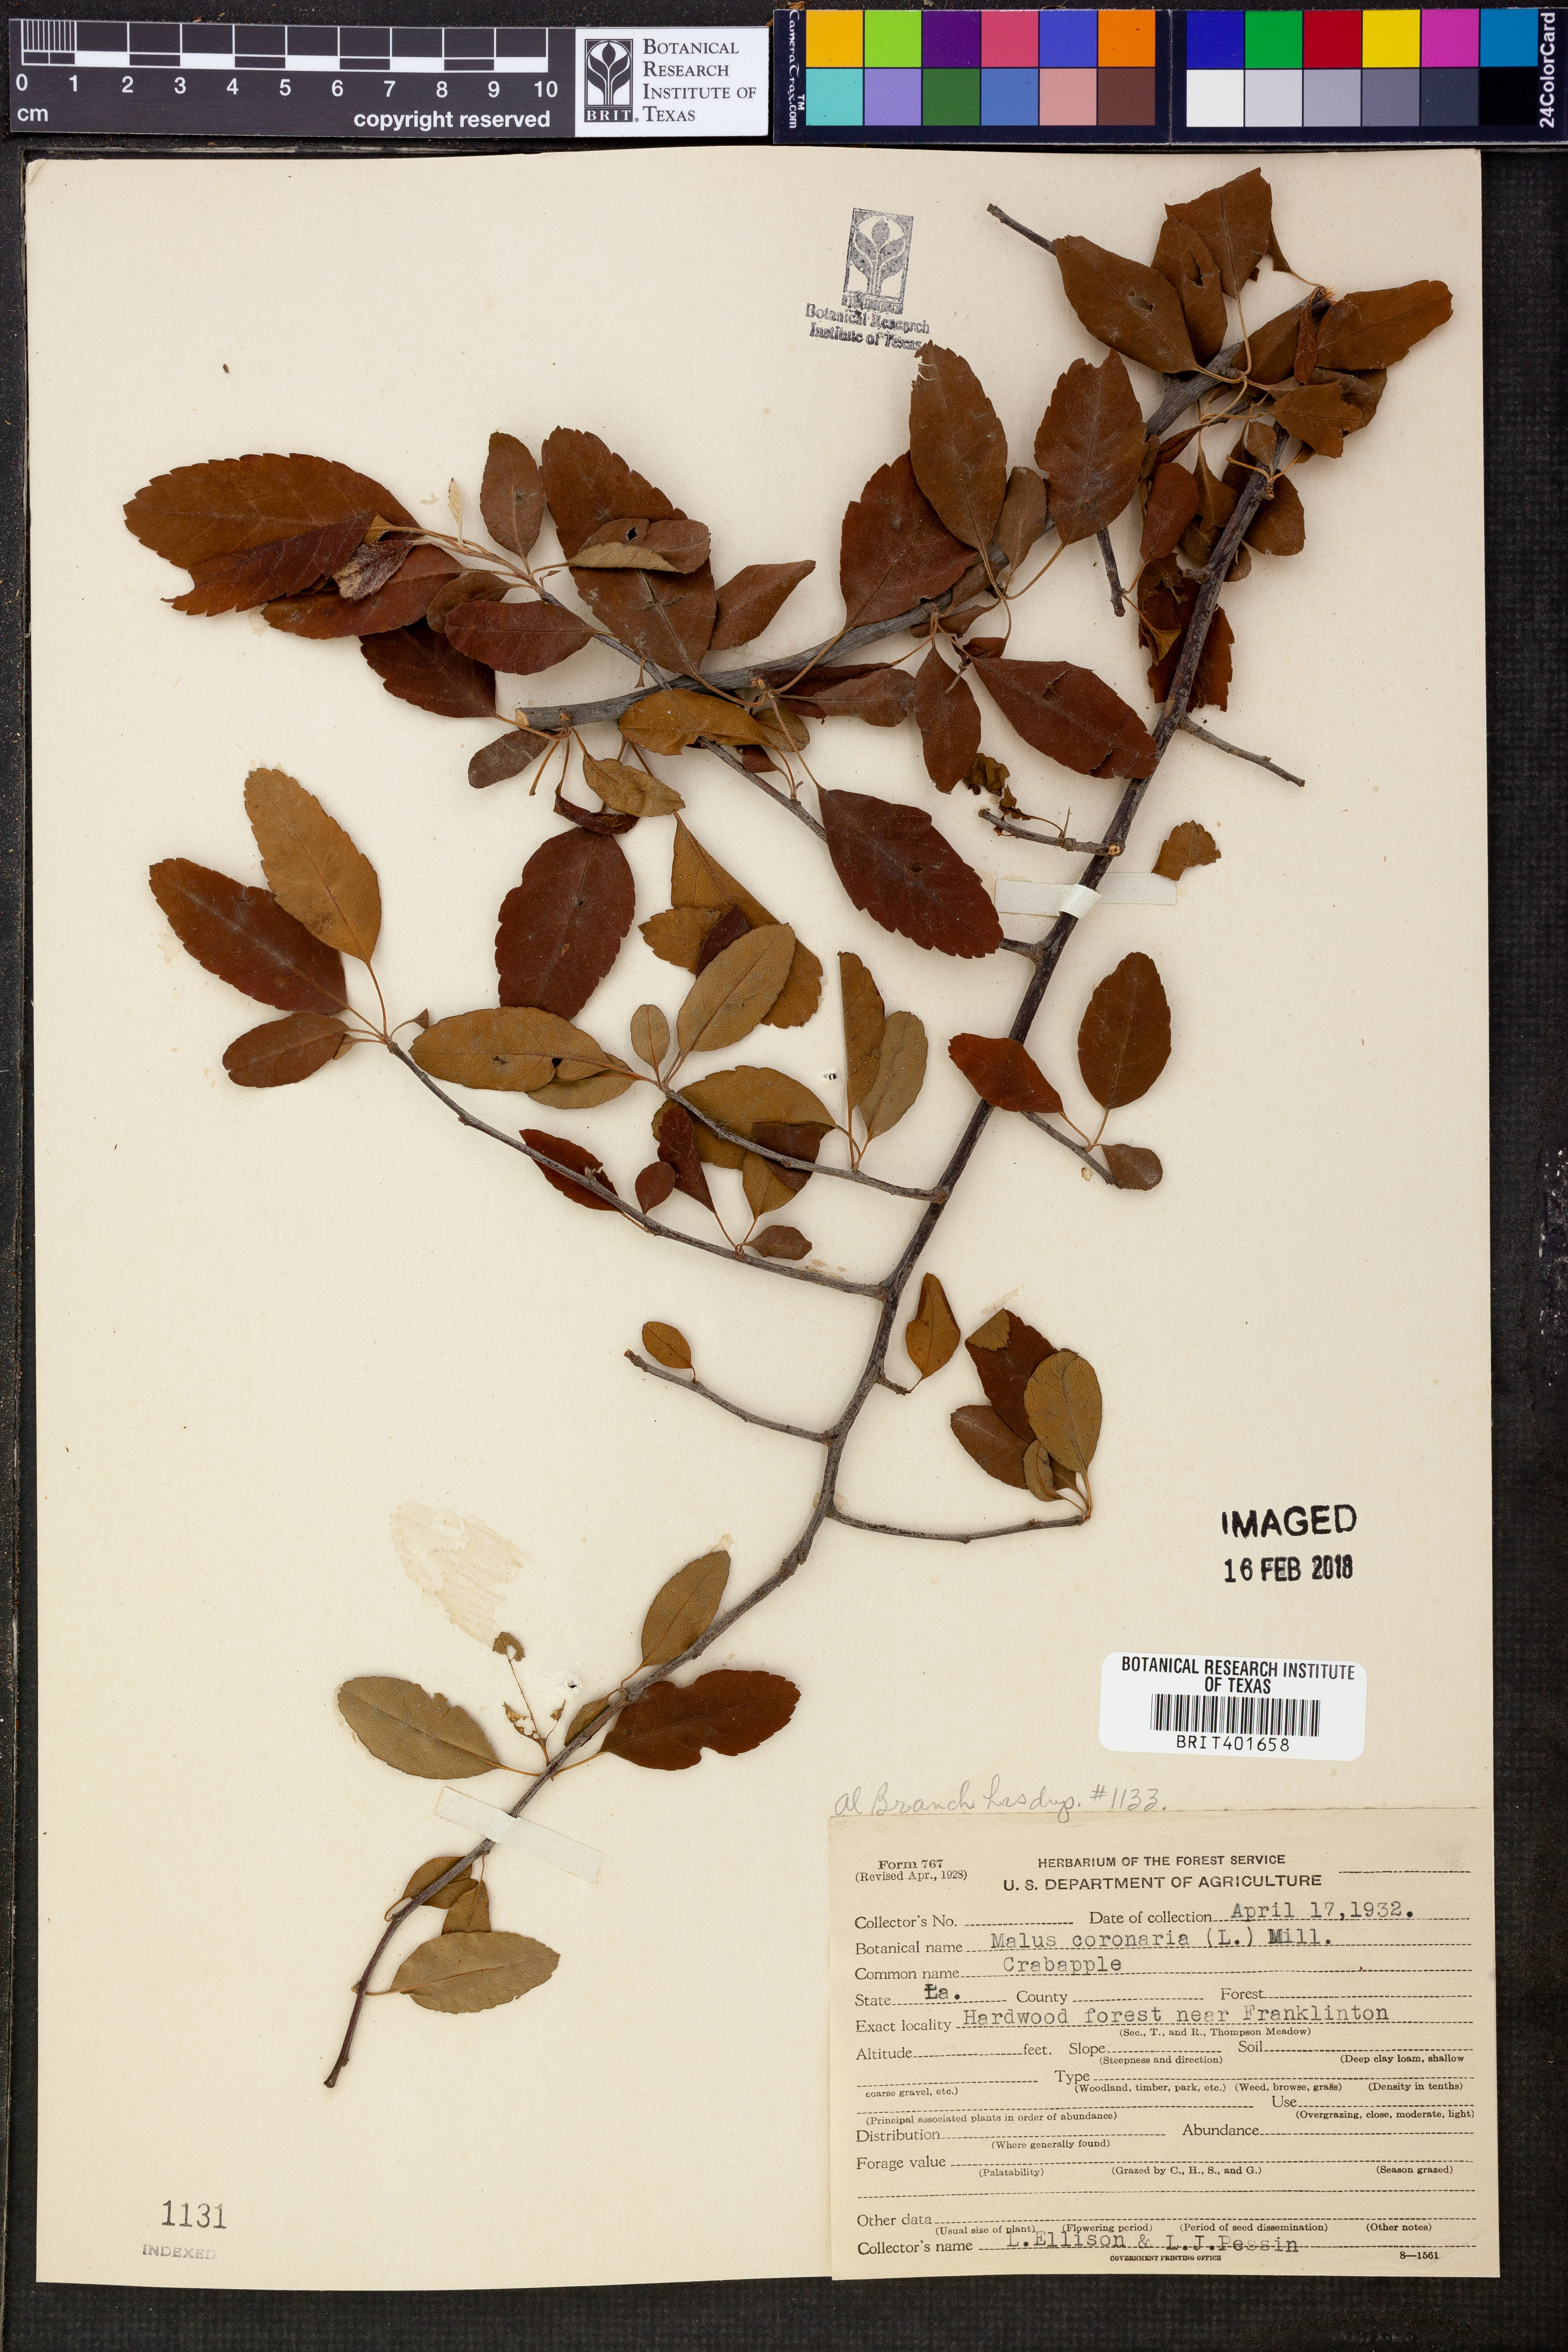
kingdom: Plantae
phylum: Tracheophyta
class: Magnoliopsida
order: Rosales
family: Rosaceae
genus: Malus
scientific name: Malus coronaria
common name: Sweet crab apple
